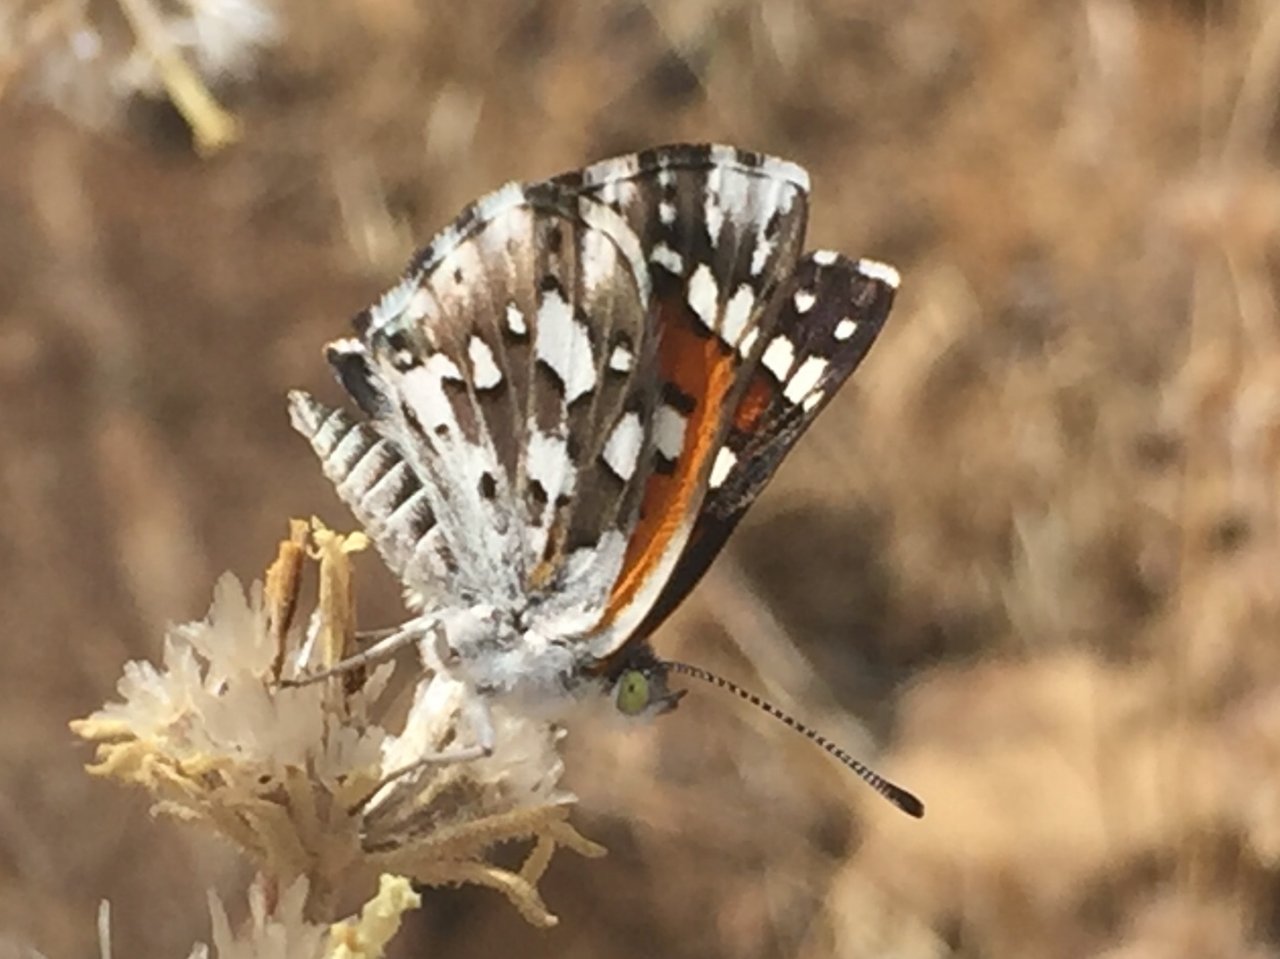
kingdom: Animalia
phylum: Arthropoda
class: Insecta
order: Lepidoptera
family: Riodinidae
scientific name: Riodinidae
